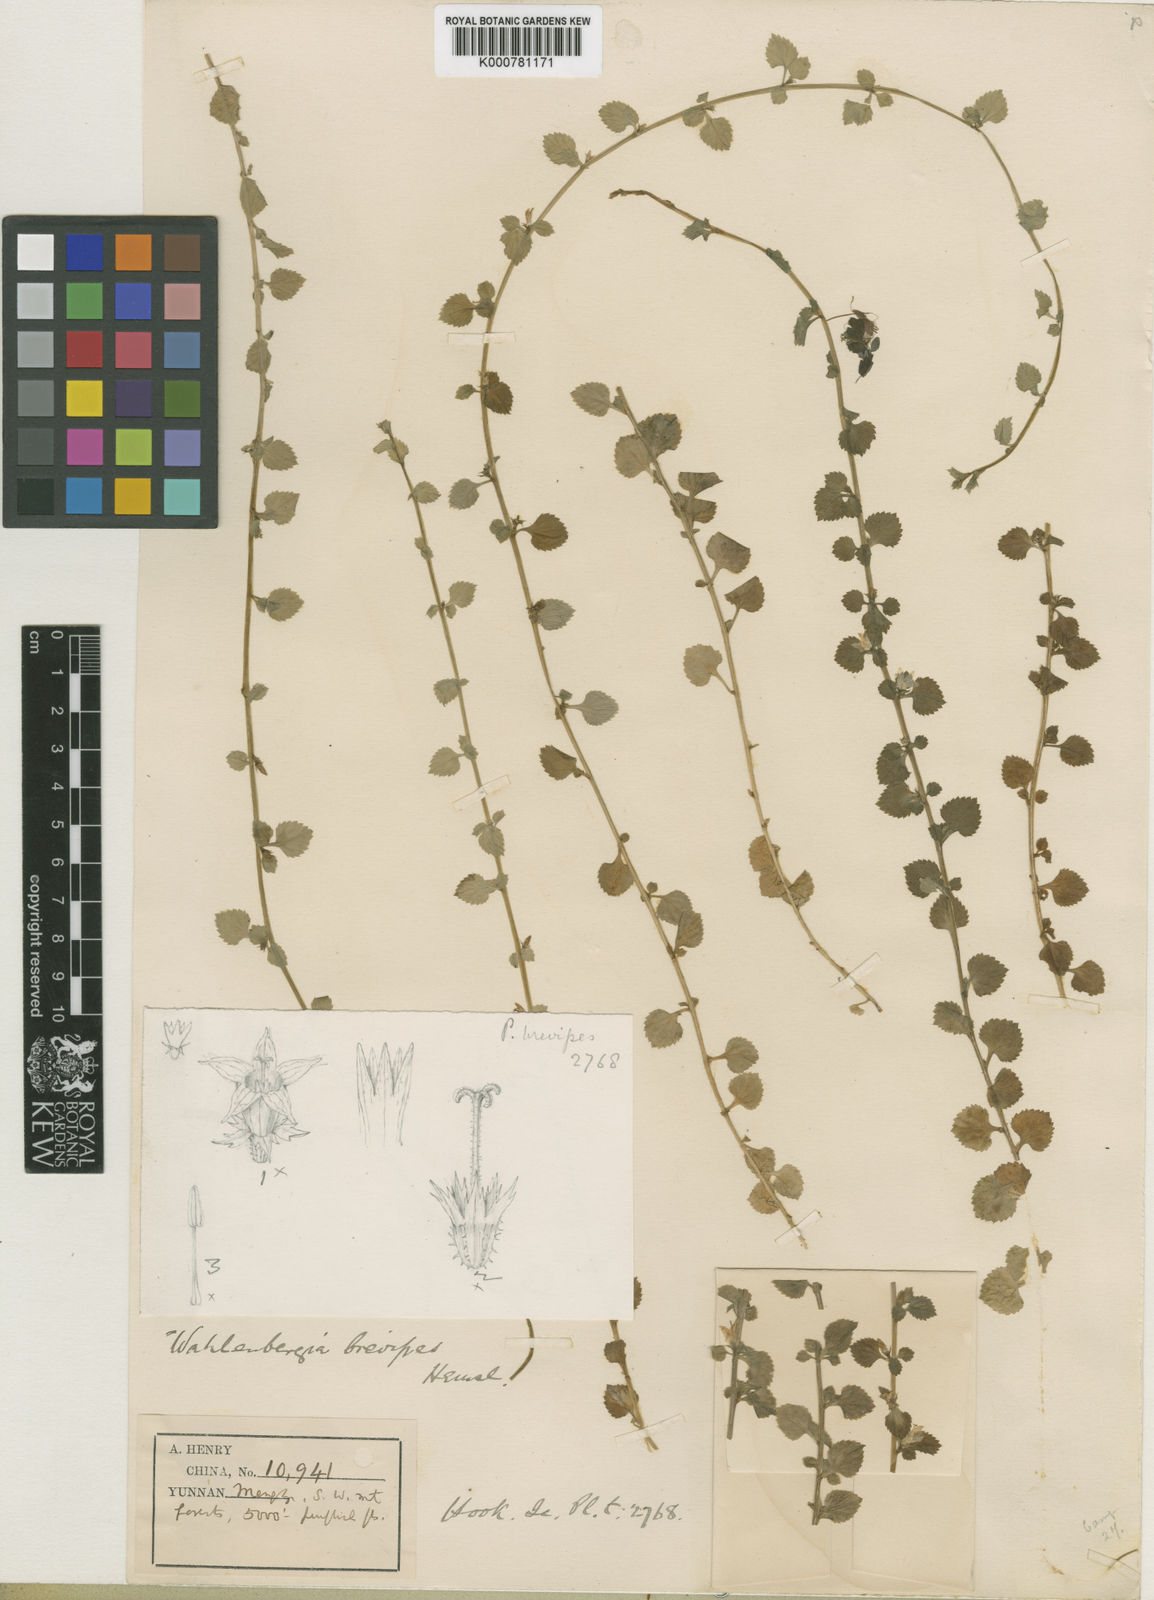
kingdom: Plantae
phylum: Tracheophyta
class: Magnoliopsida
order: Asterales
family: Campanulaceae
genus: Homocodon
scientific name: Homocodon brevipes
